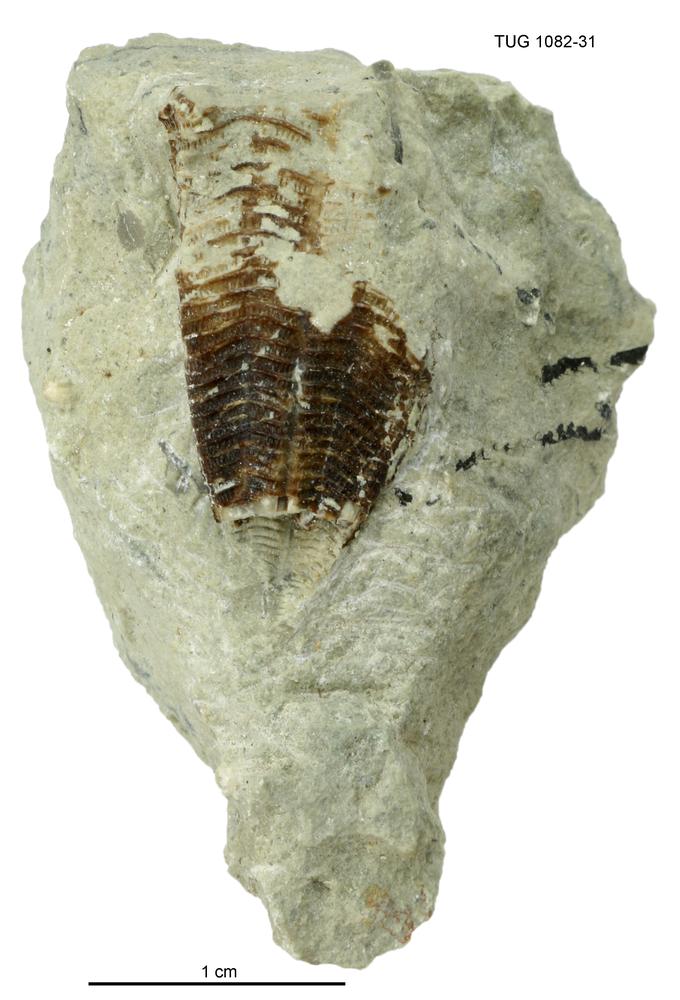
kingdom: Animalia
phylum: Cnidaria
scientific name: Cnidaria
